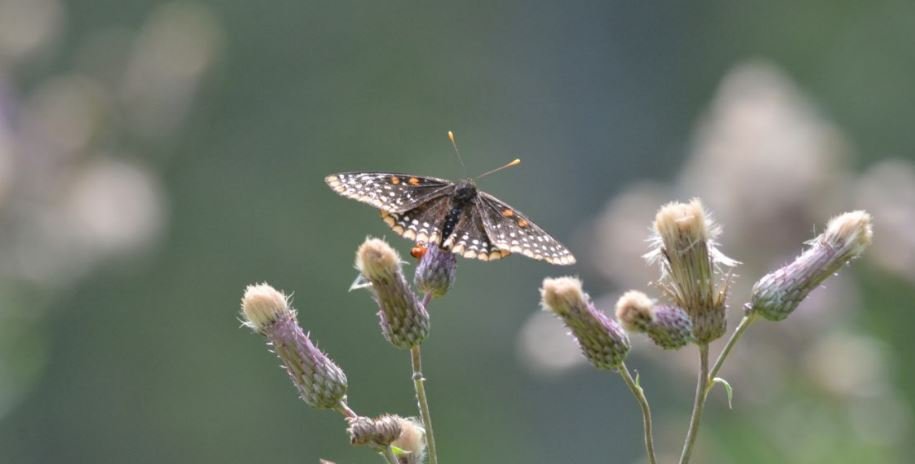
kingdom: Animalia
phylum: Arthropoda
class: Insecta
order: Lepidoptera
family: Nymphalidae
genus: Euphydryas
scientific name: Euphydryas phaeton
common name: Baltimore Checkerspot
